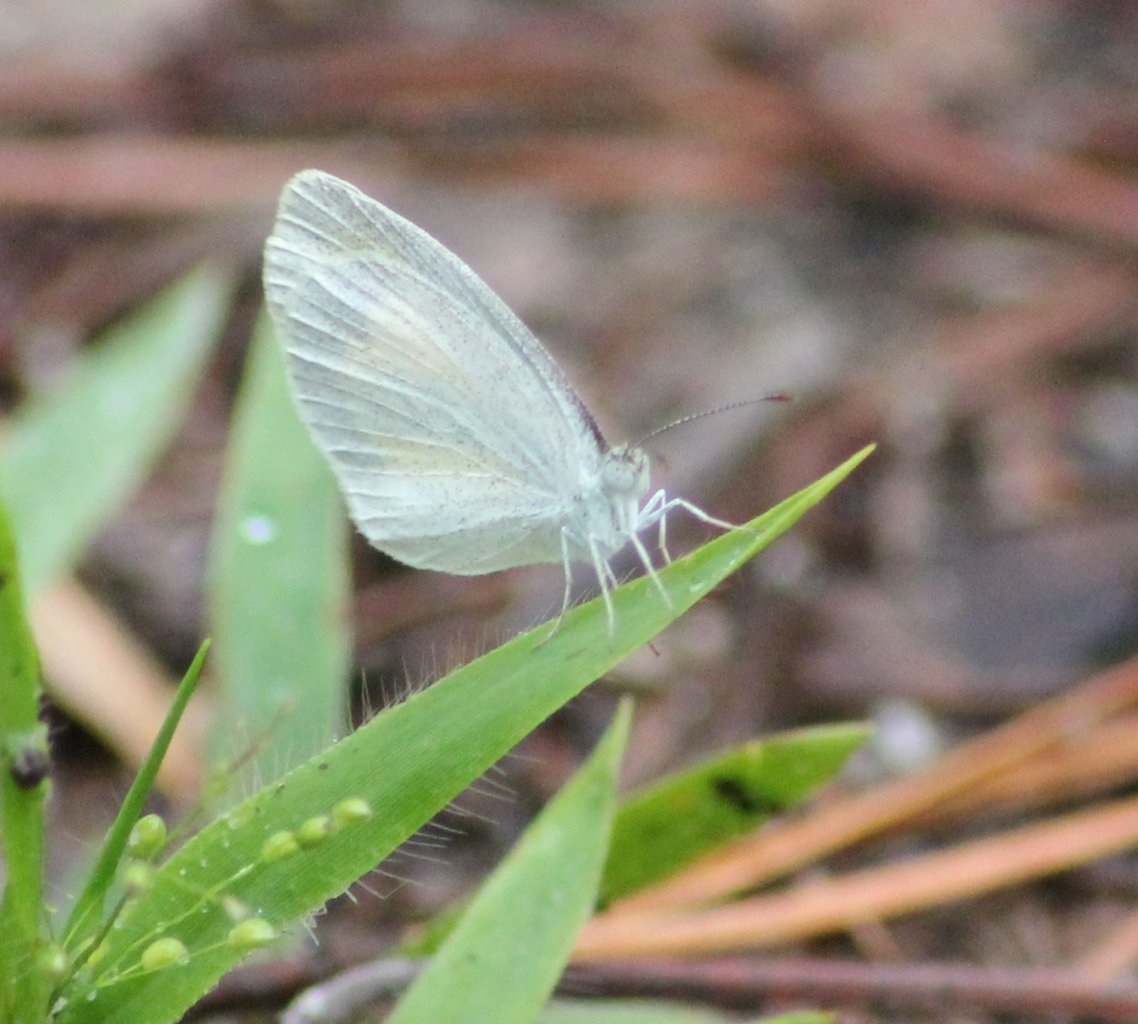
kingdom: Animalia
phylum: Arthropoda
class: Insecta
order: Lepidoptera
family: Pieridae
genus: Eurema
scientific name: Eurema daira
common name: Barred Yellow
